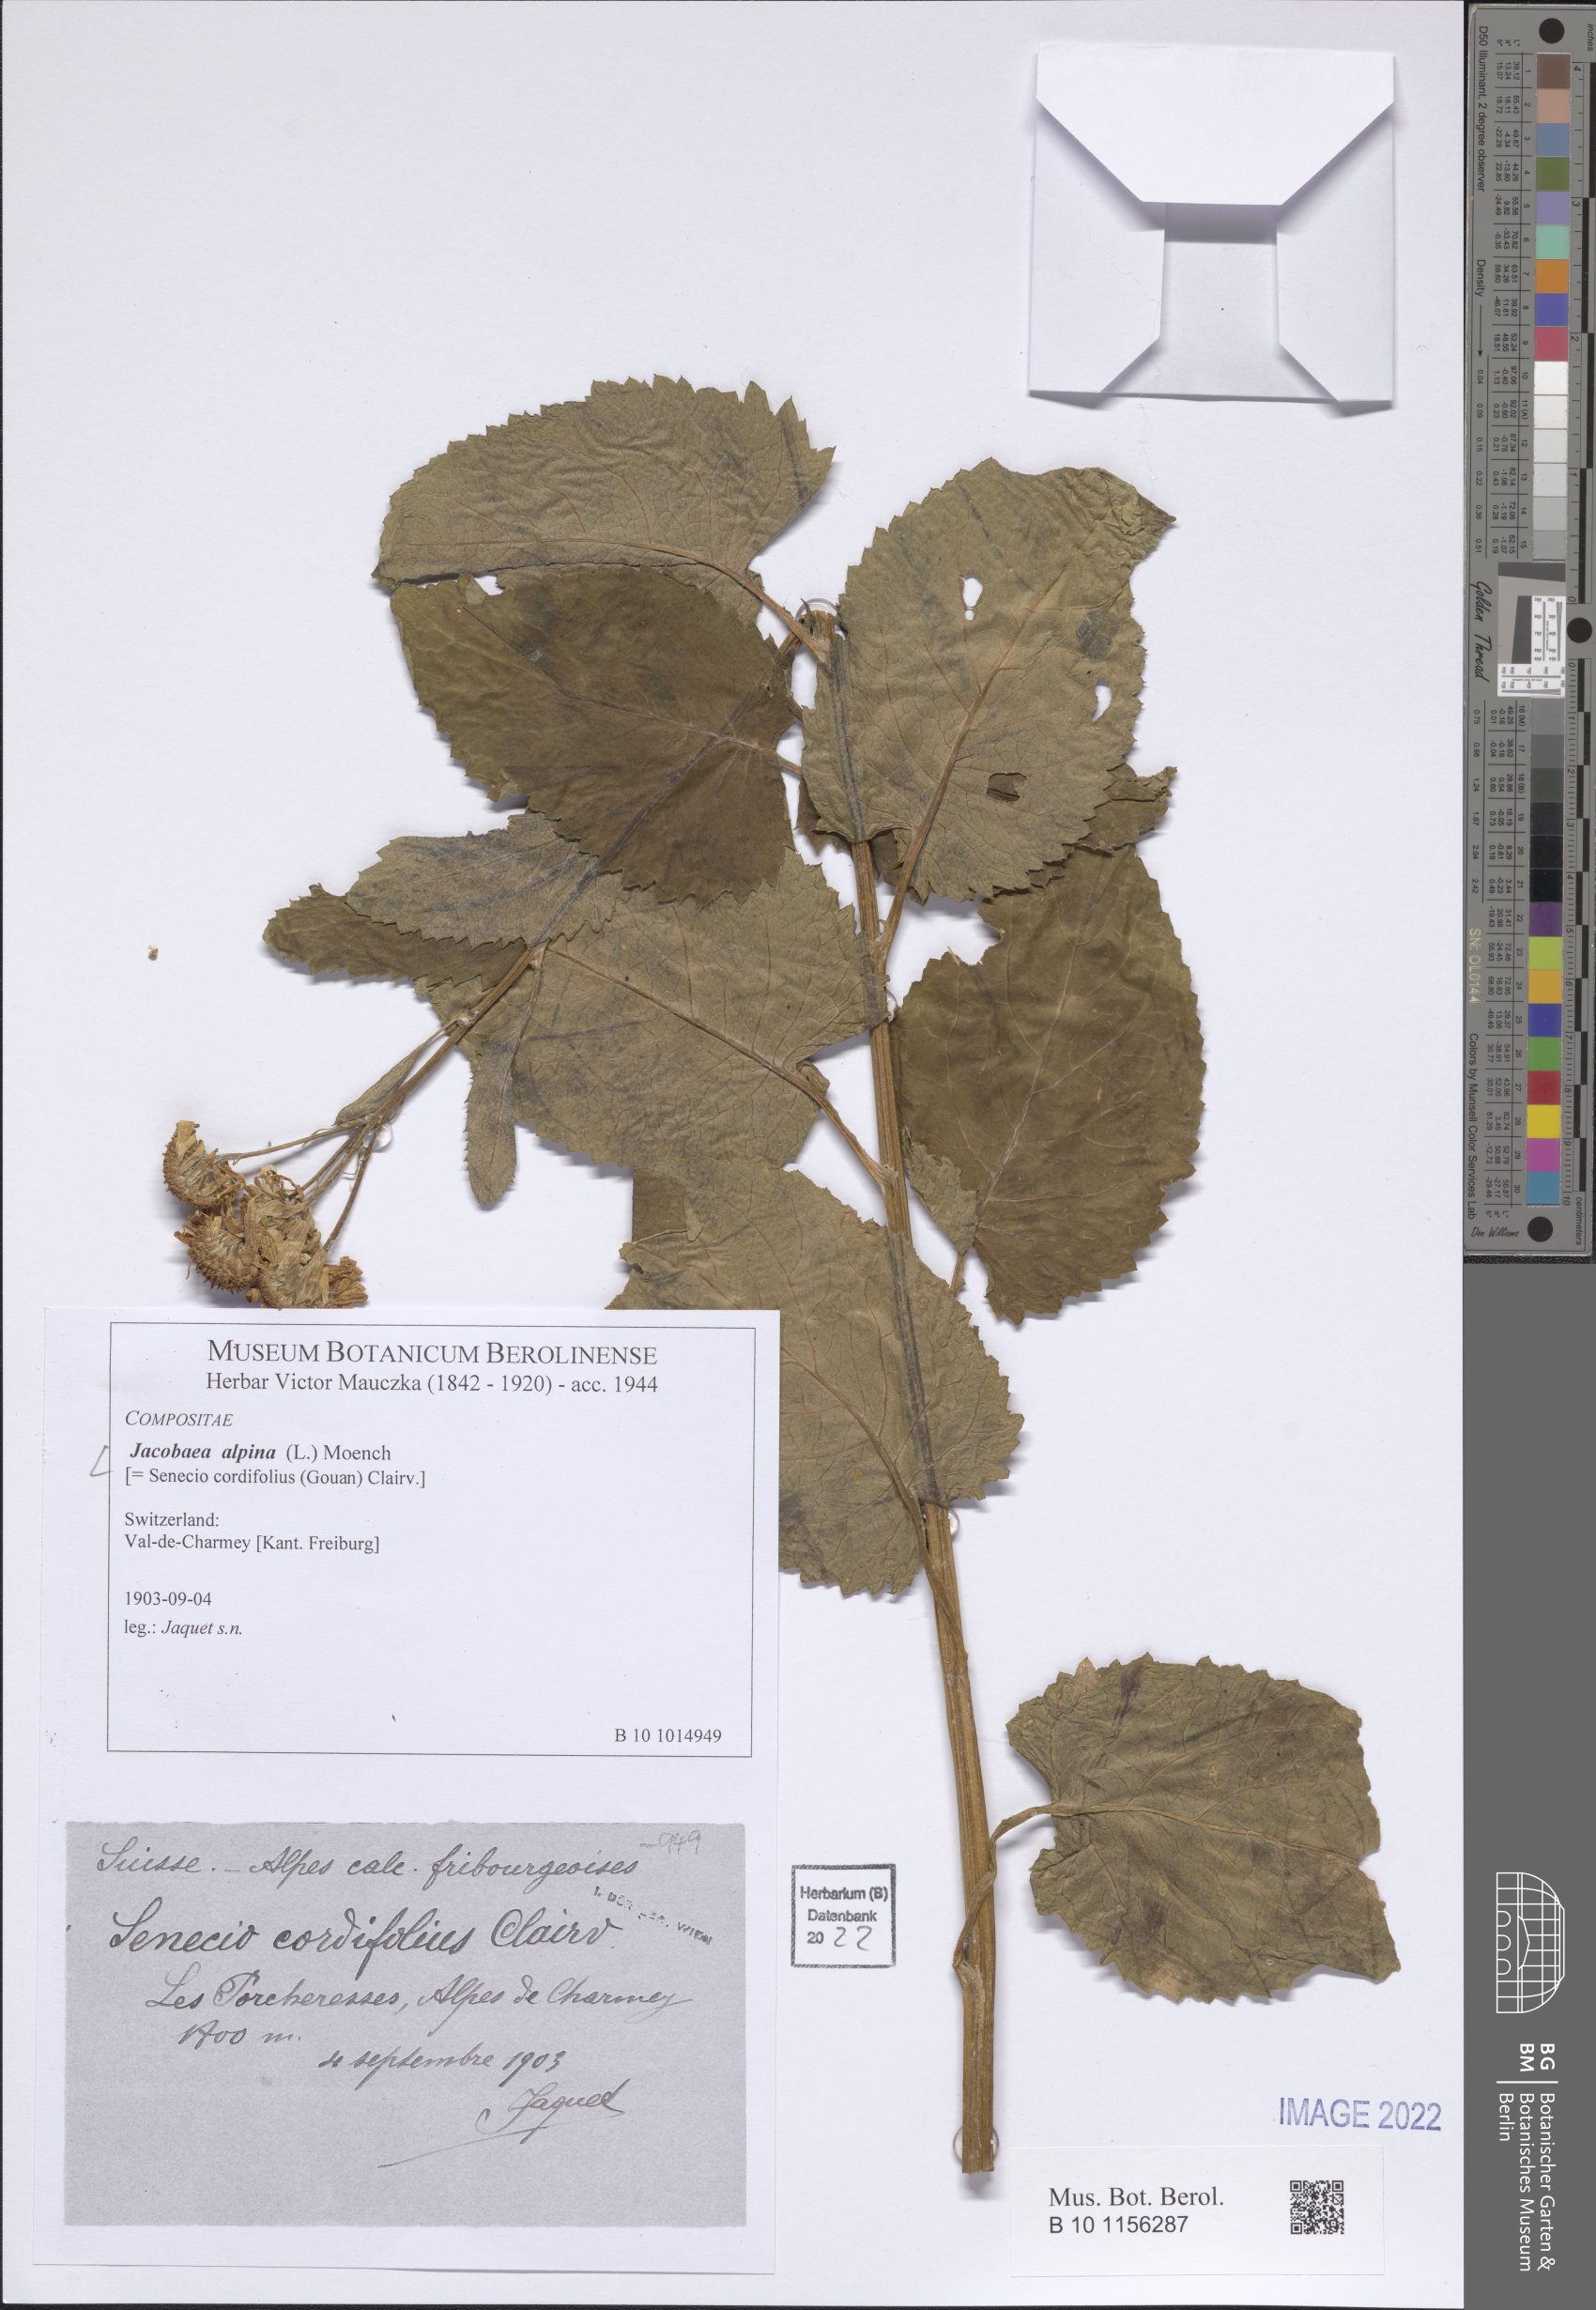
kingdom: Plantae
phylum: Tracheophyta
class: Magnoliopsida
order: Asterales
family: Asteraceae
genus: Jacobaea
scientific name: Jacobaea alpina
